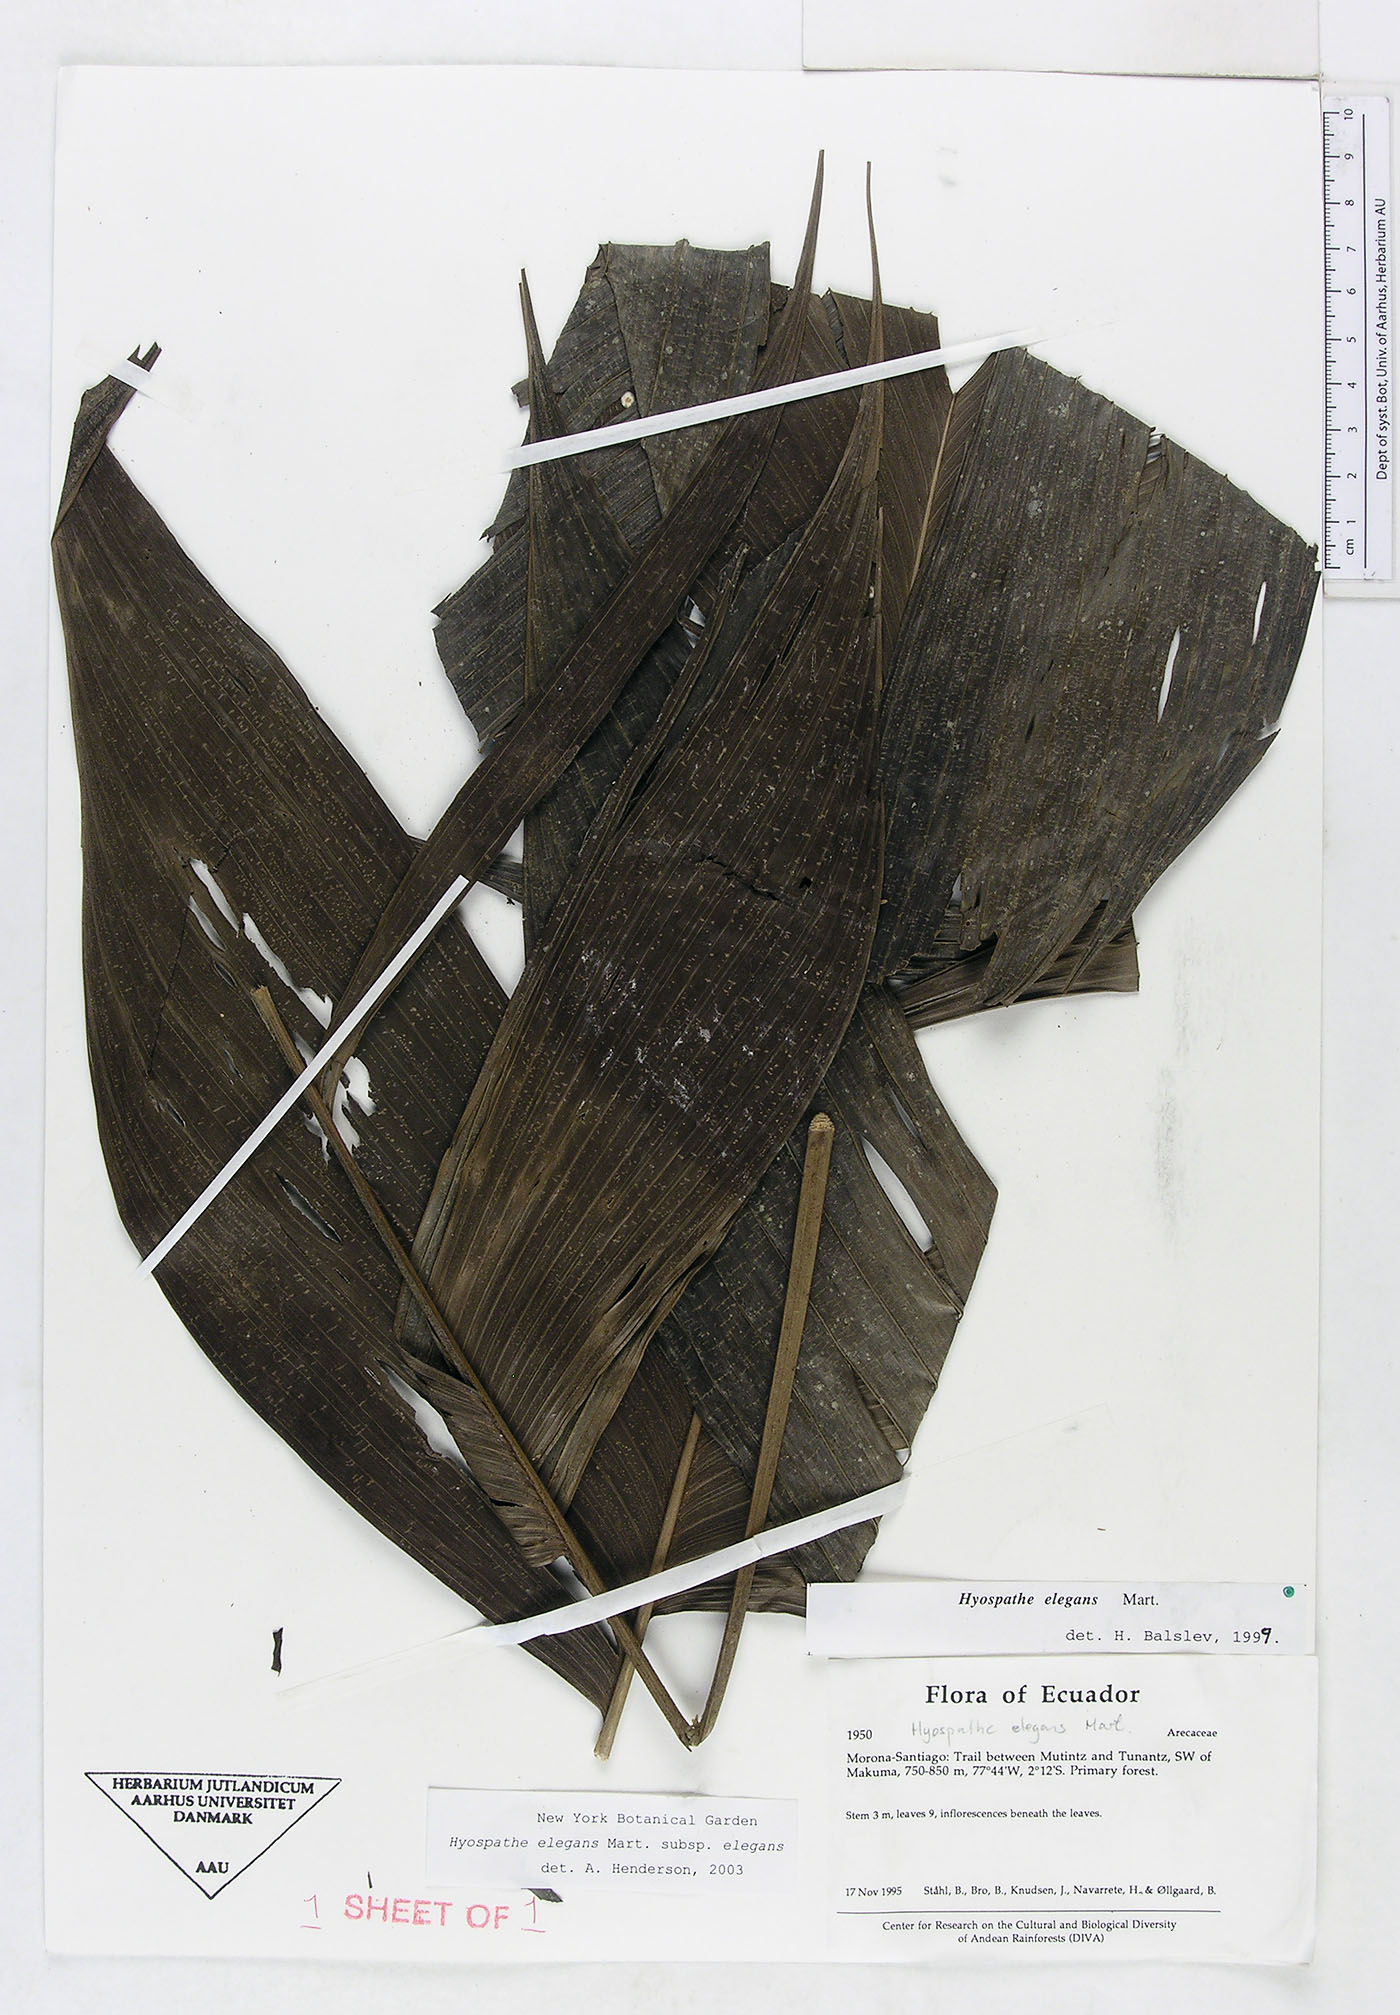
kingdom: Plantae
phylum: Tracheophyta
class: Liliopsida
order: Arecales
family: Arecaceae
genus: Hyospathe
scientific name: Hyospathe elegans
